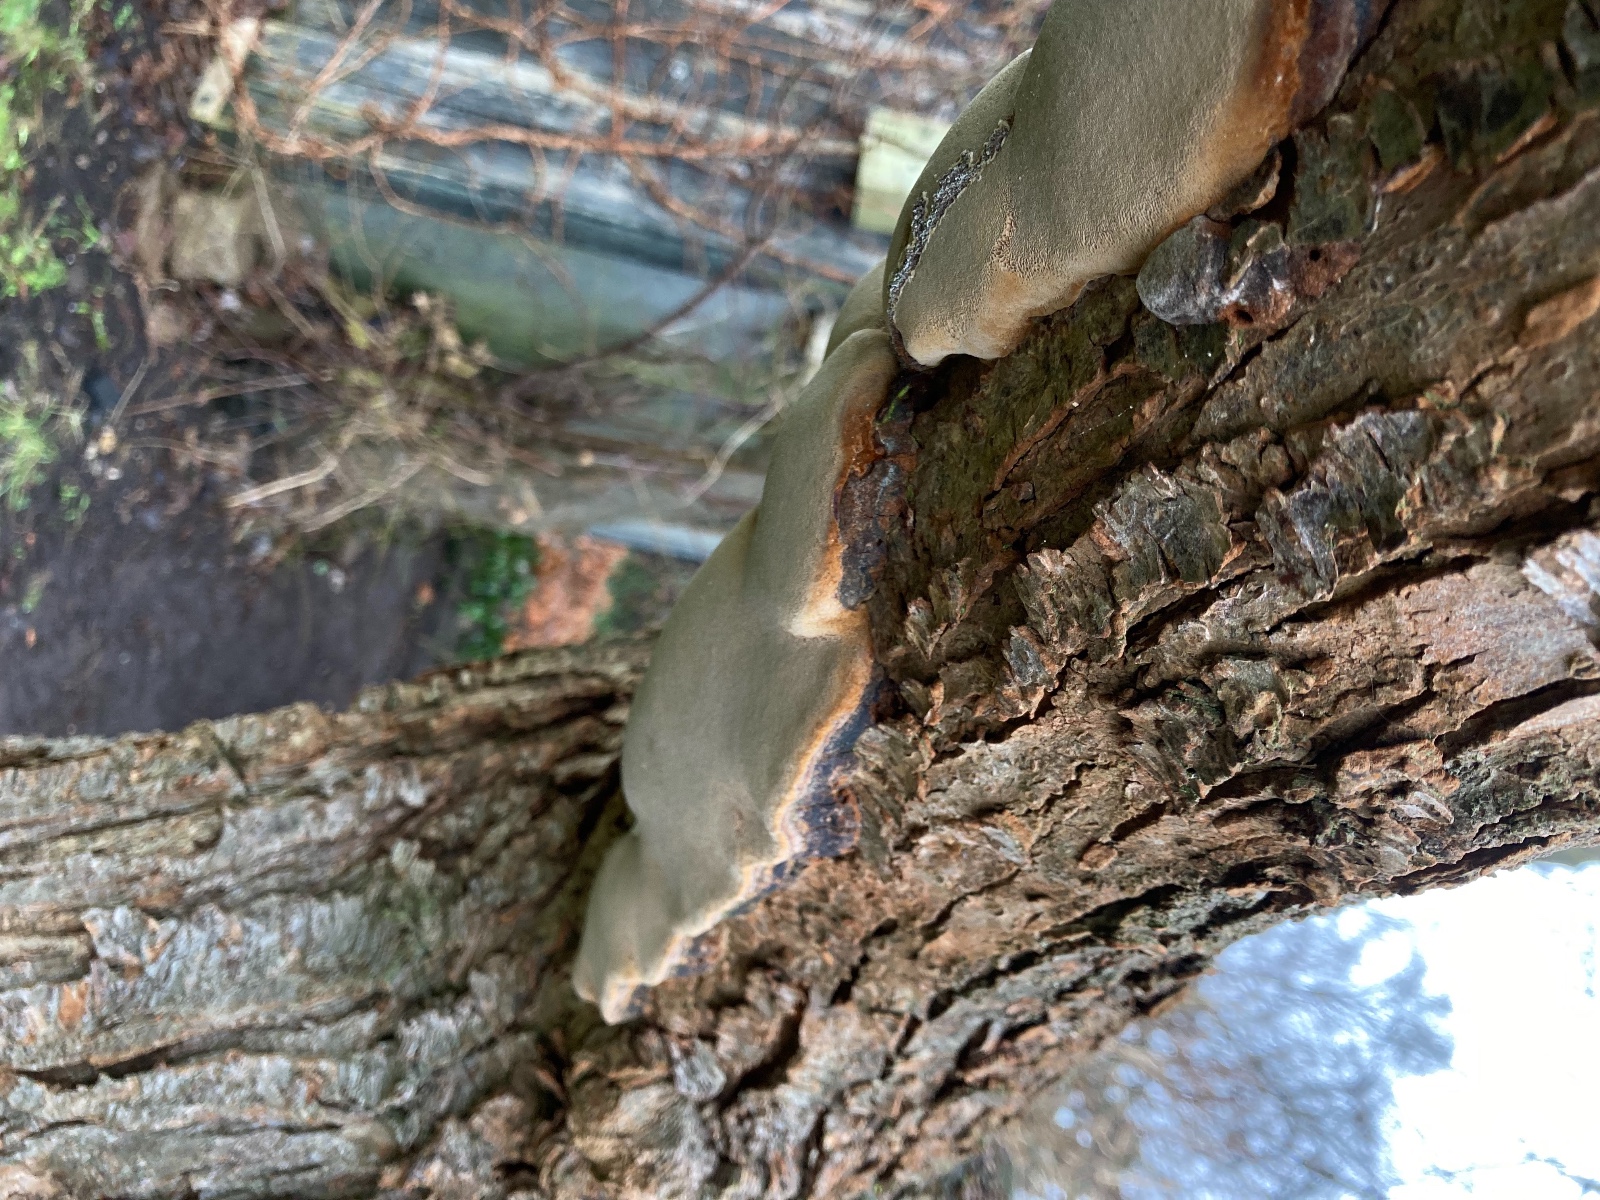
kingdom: Fungi
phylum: Basidiomycota
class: Agaricomycetes
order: Hymenochaetales
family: Hymenochaetaceae
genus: Phellinus
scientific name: Phellinus pomaceus
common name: blomme-ildporesvamp
